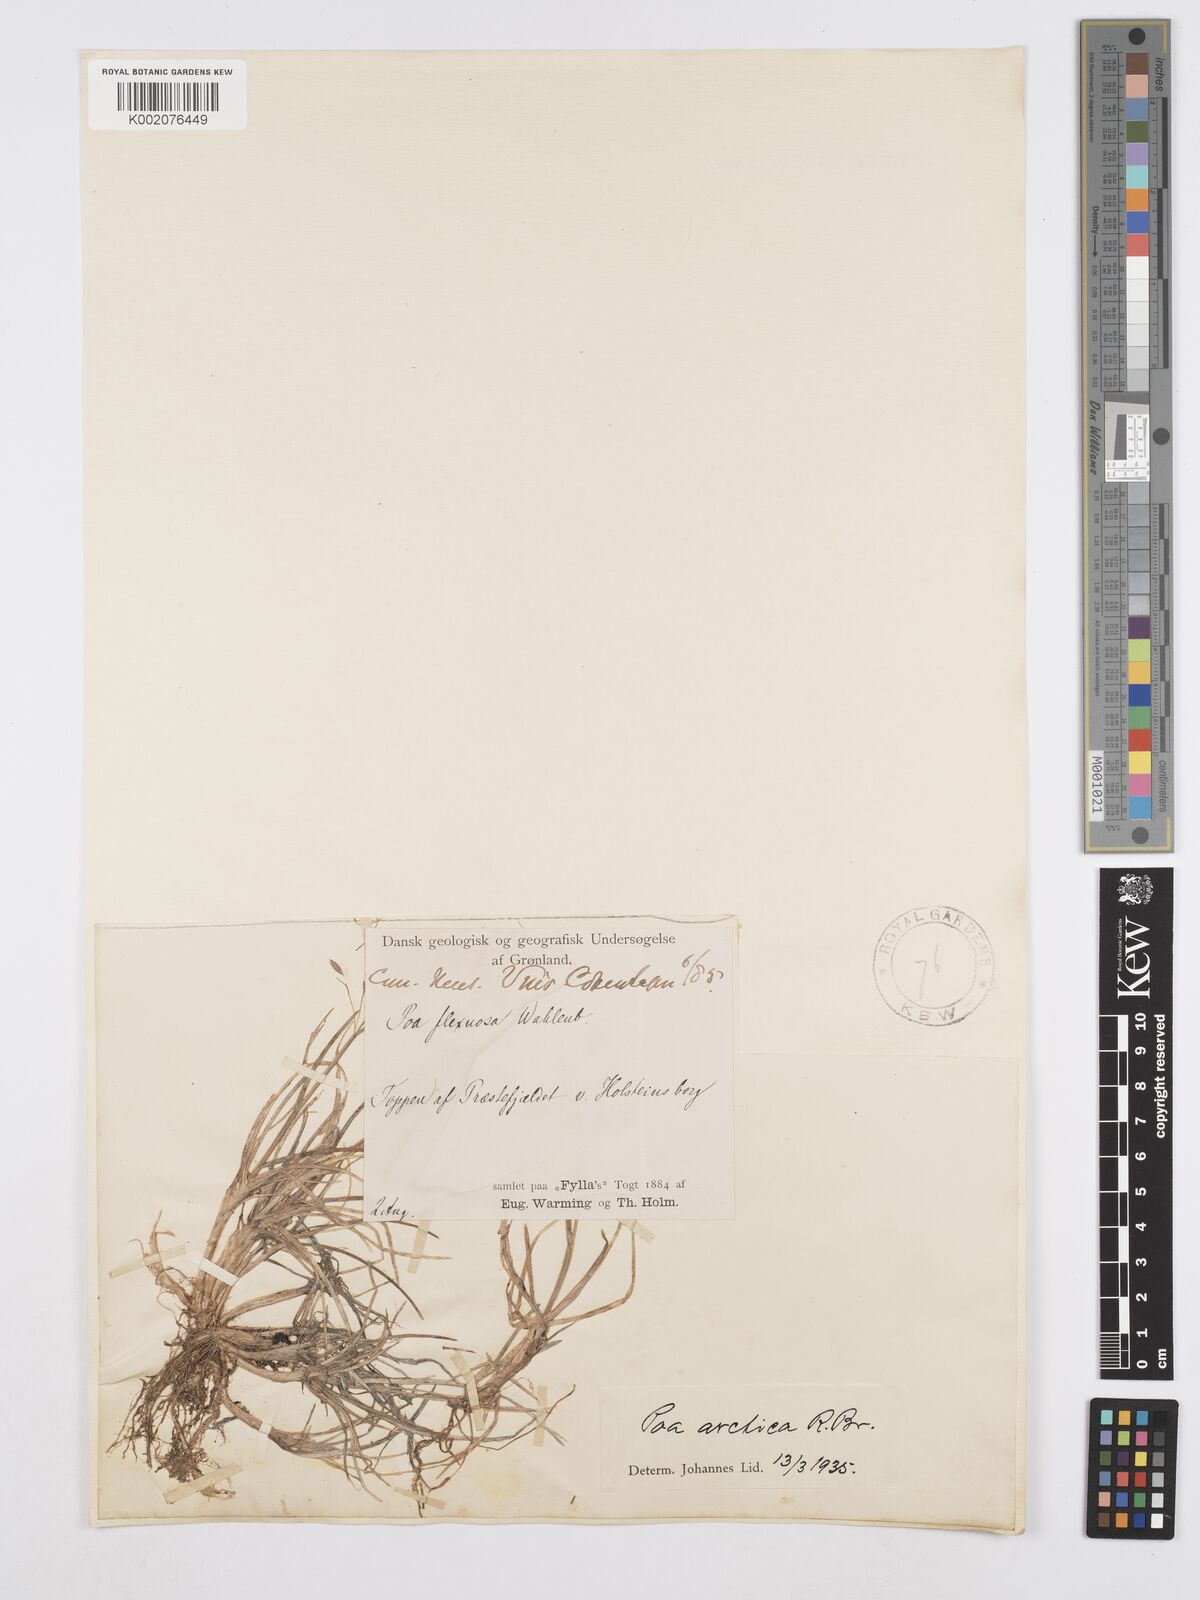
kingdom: Plantae
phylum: Tracheophyta
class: Liliopsida
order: Poales
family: Poaceae
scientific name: Poaceae
